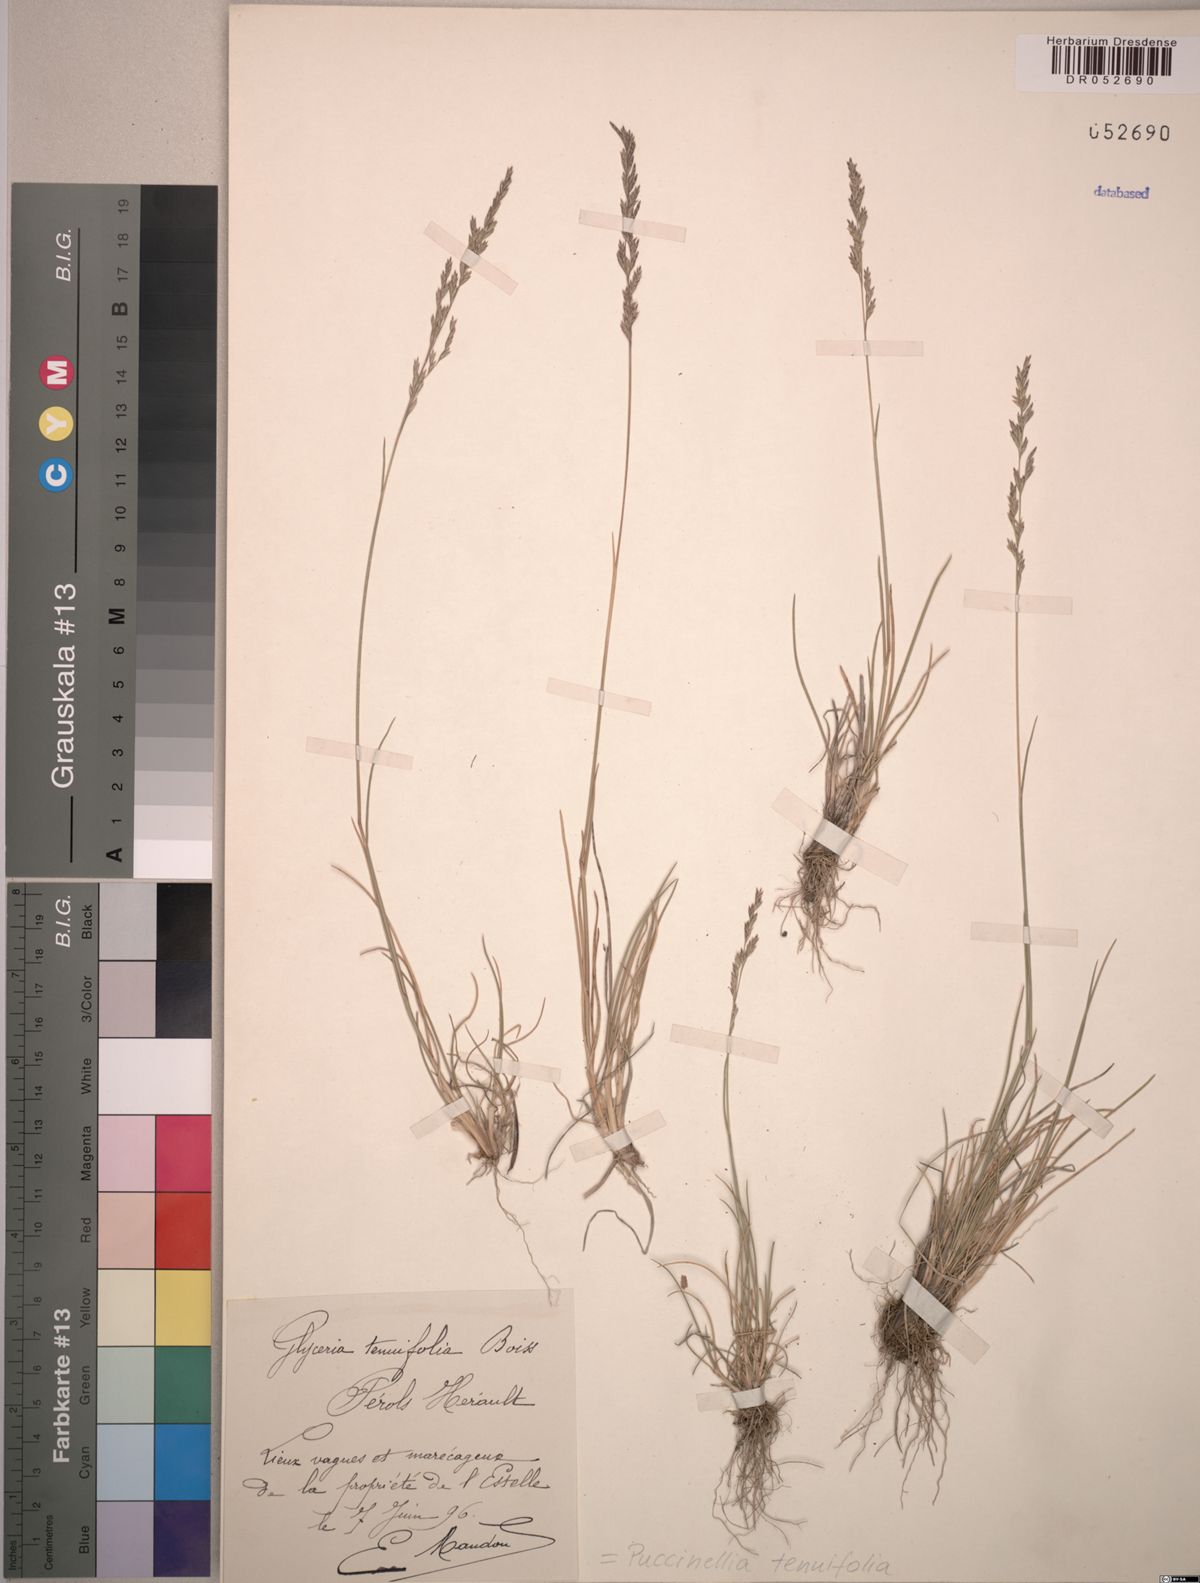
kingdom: Plantae
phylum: Tracheophyta
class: Liliopsida
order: Poales
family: Poaceae
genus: Puccinellia
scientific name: Puccinellia tenuifolia
